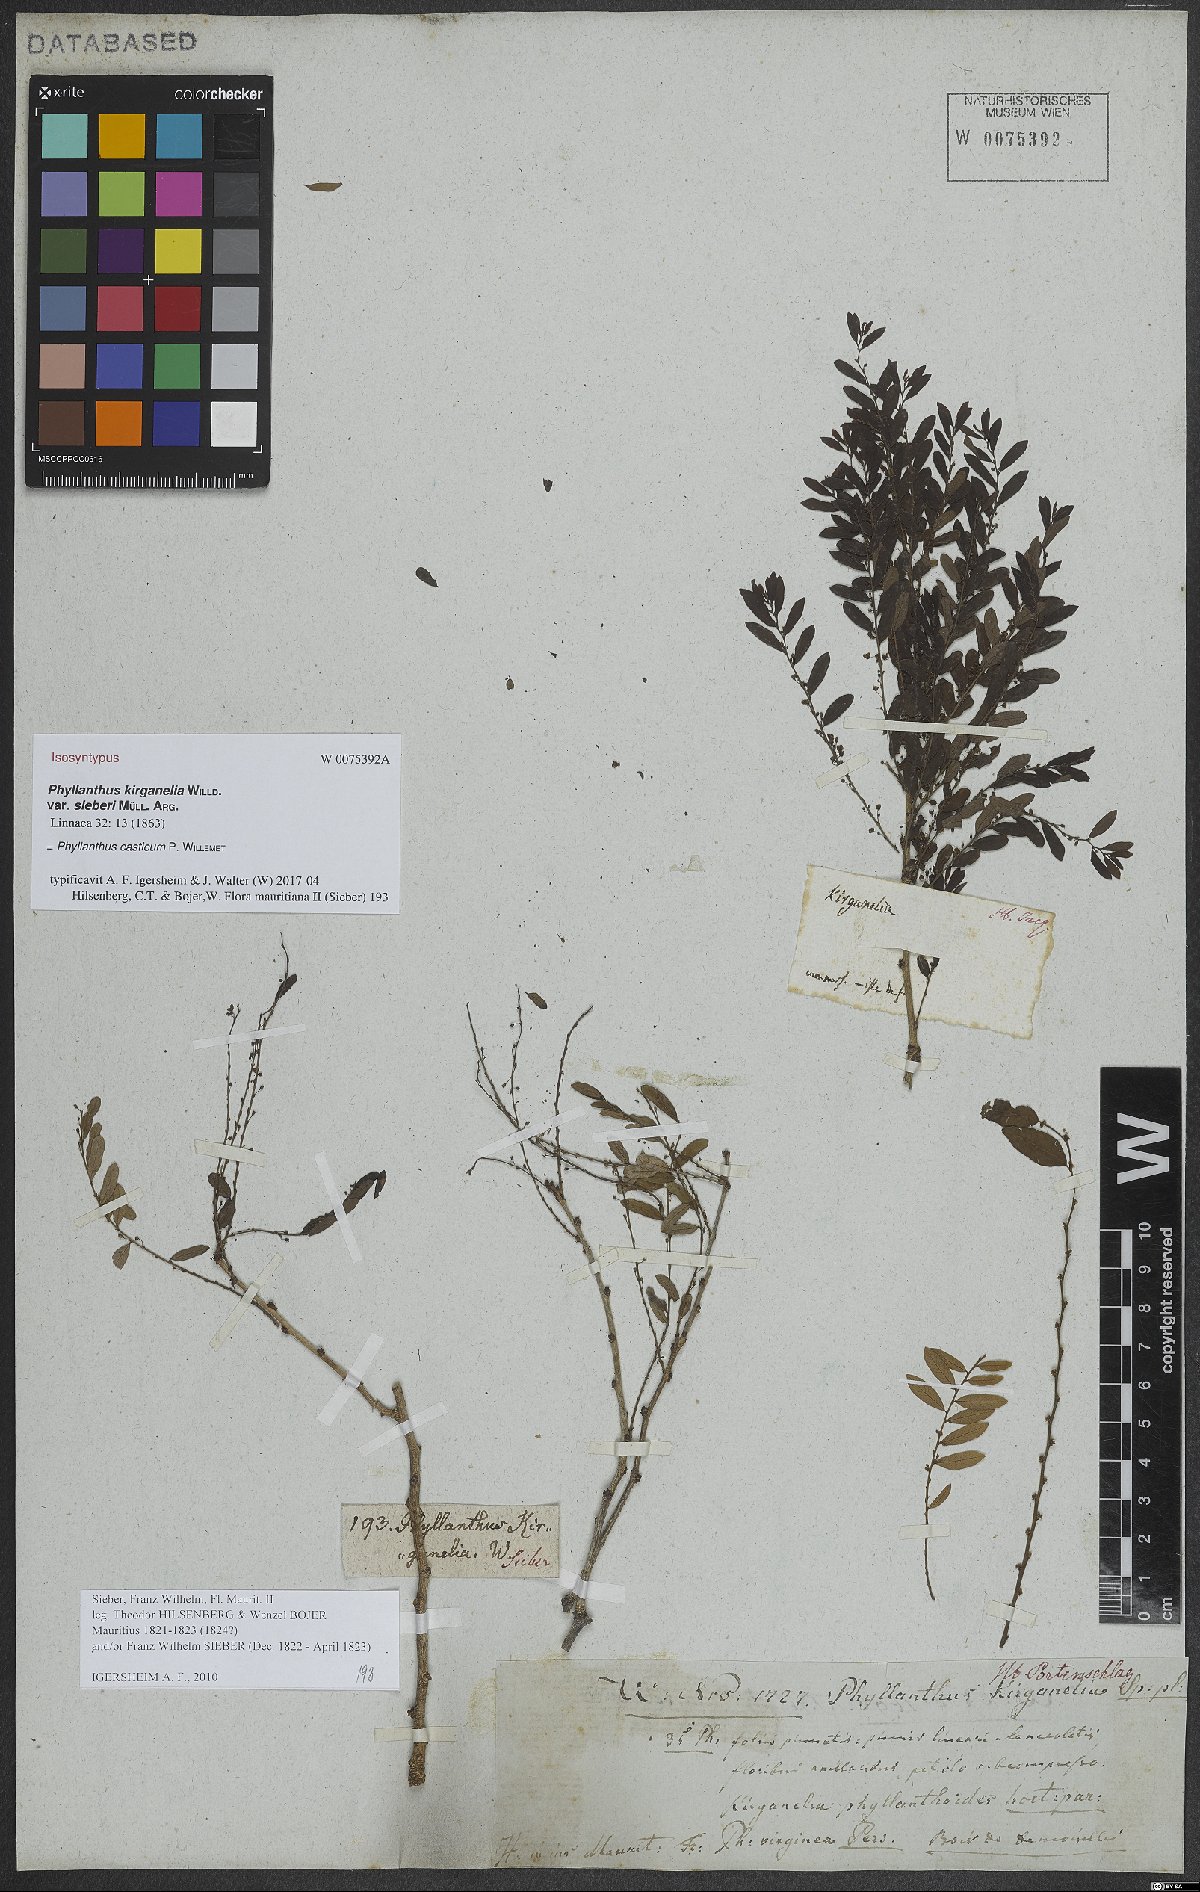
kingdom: Plantae
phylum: Tracheophyta
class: Magnoliopsida
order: Malpighiales
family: Phyllanthaceae
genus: Phyllanthus
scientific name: Phyllanthus casticum
